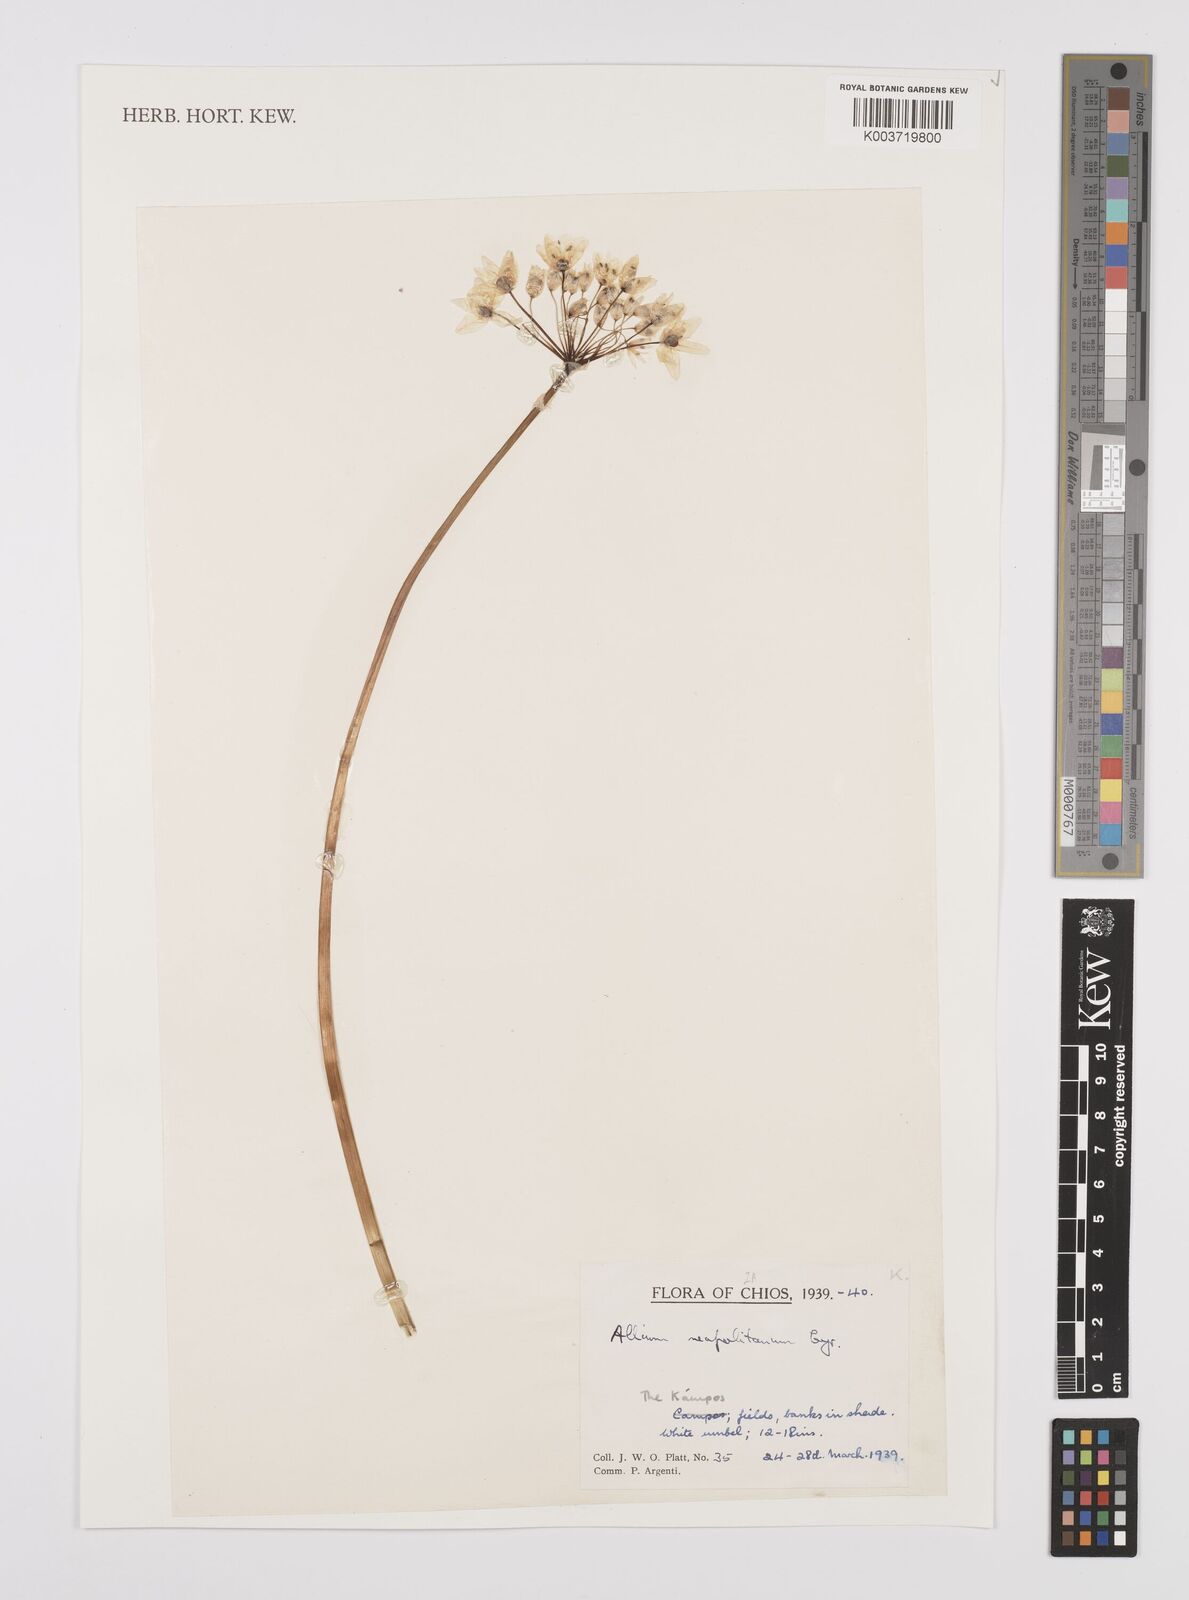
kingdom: Plantae
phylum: Tracheophyta
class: Liliopsida
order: Asparagales
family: Amaryllidaceae
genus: Allium
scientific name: Allium neapolitanum
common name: Neapolitan garlic
